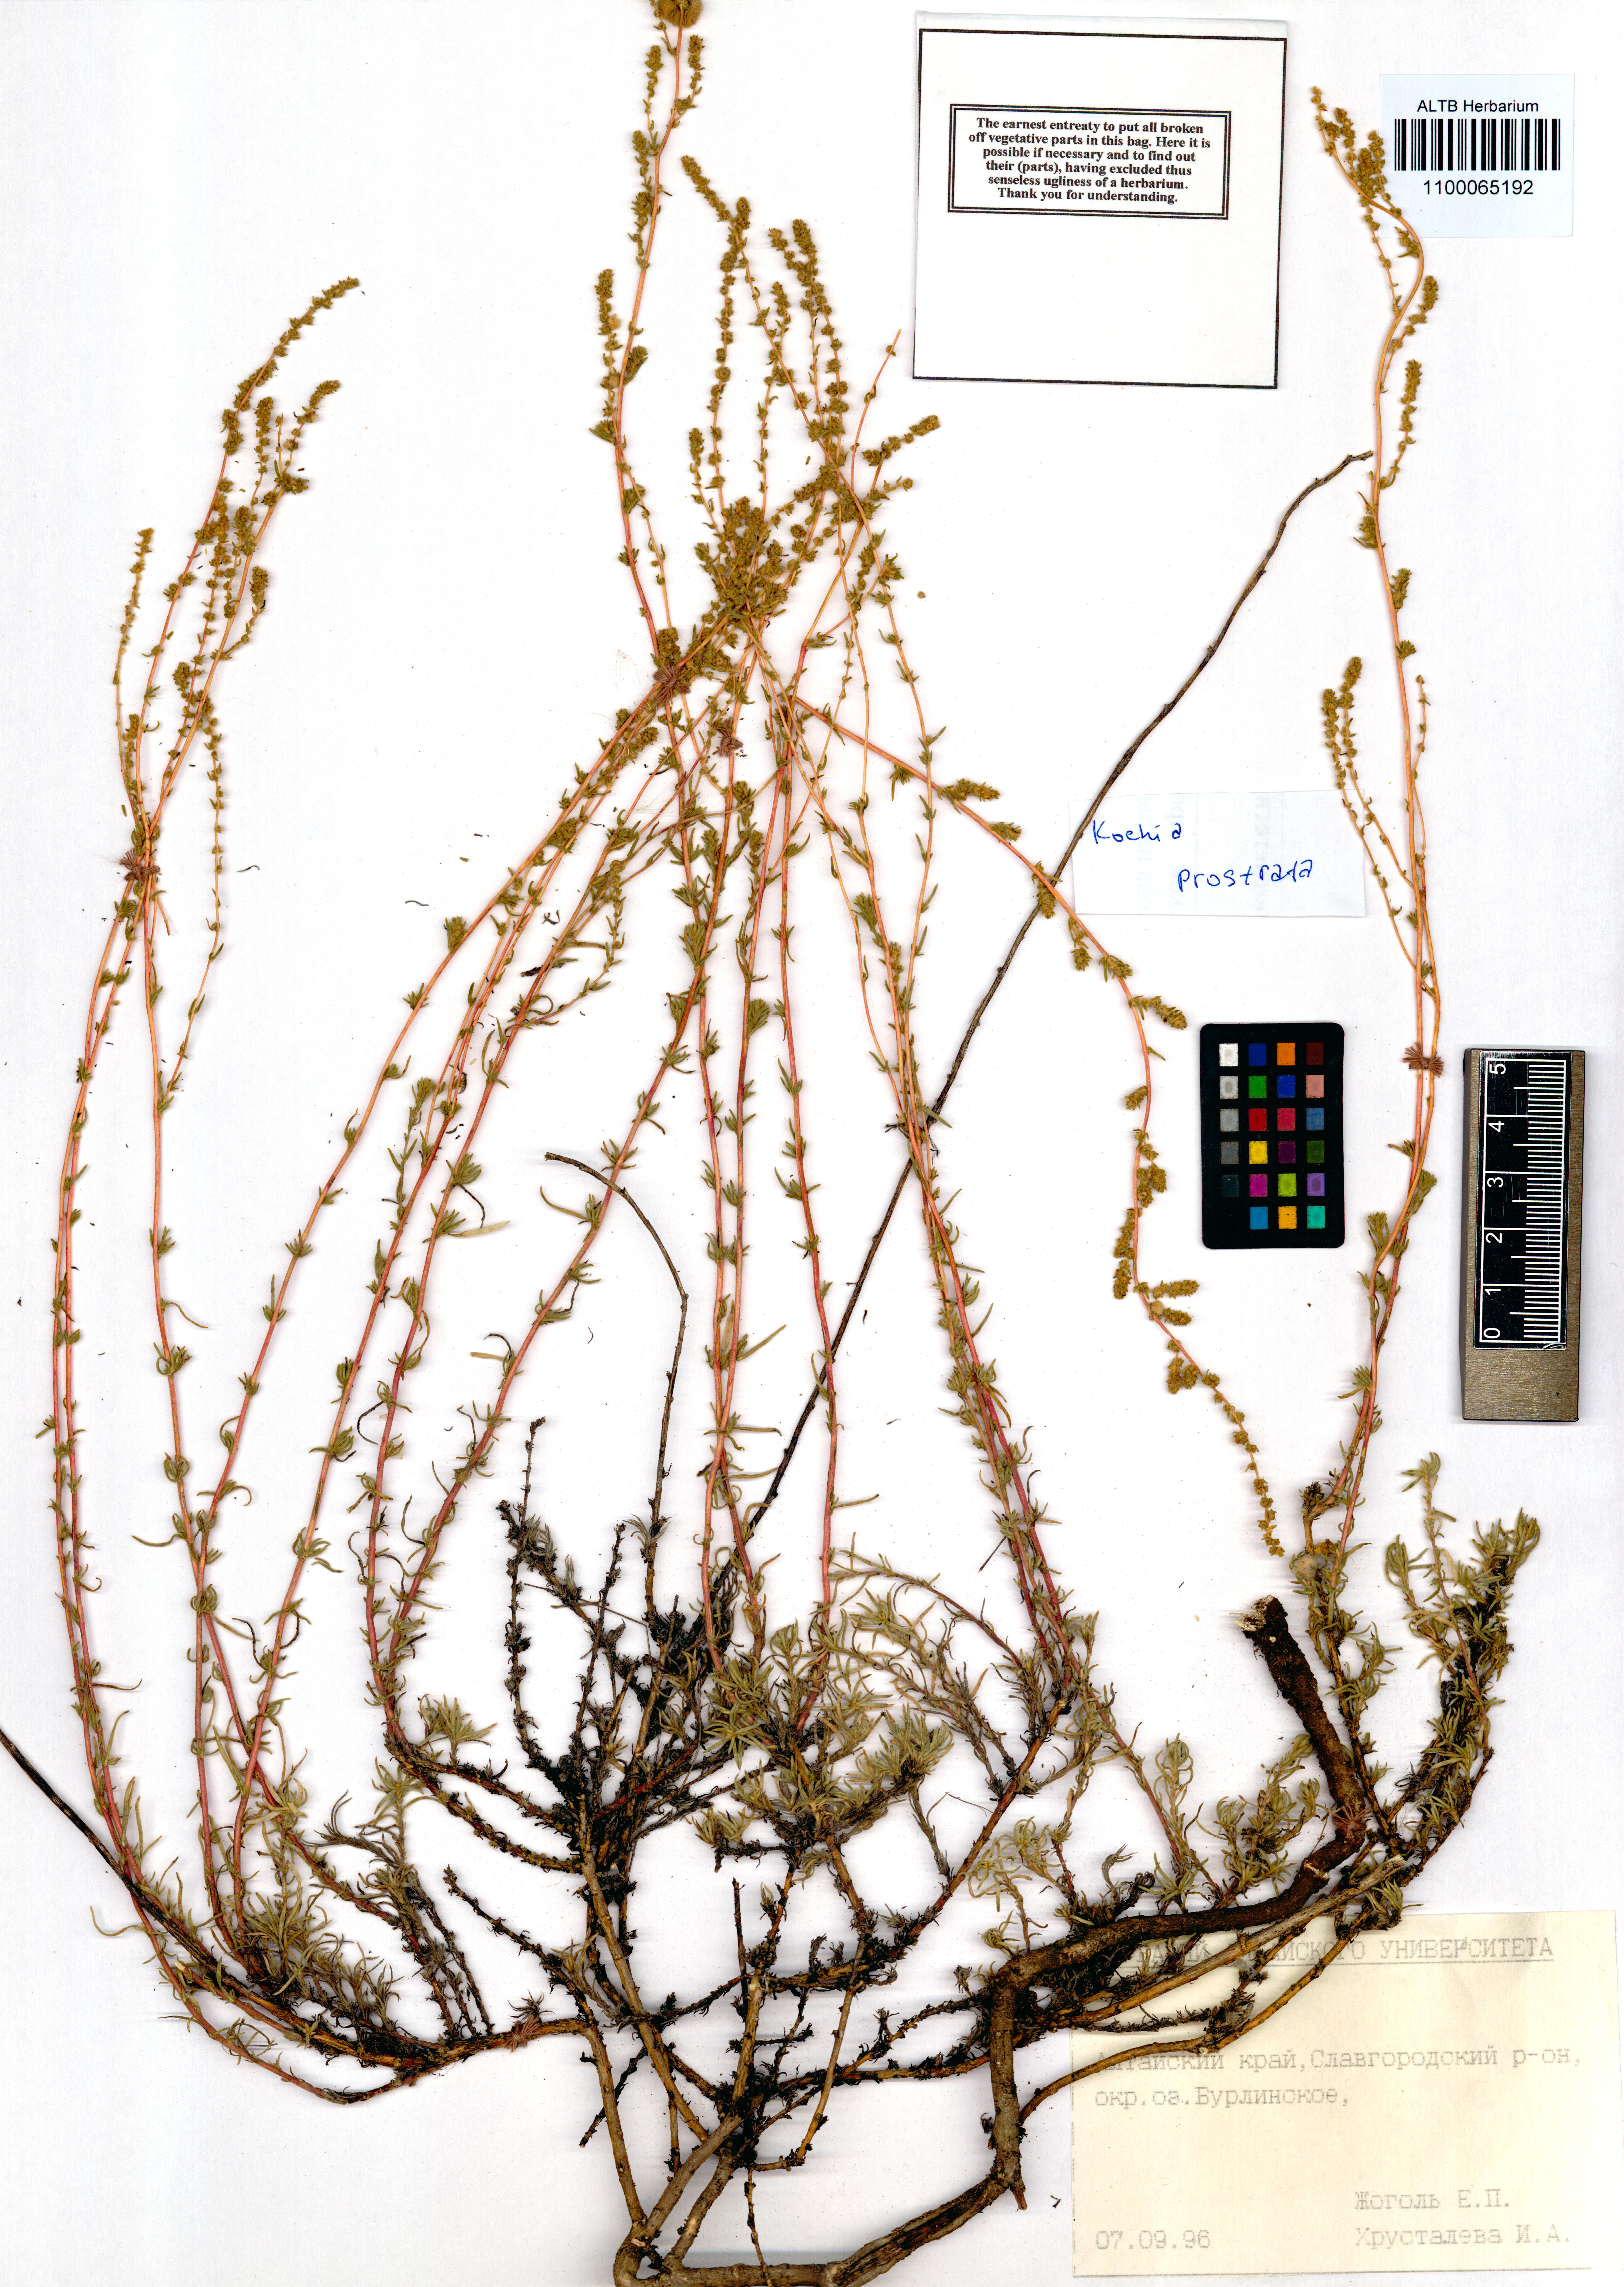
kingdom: Plantae
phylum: Tracheophyta
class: Magnoliopsida
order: Caryophyllales
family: Amaranthaceae
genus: Bassia
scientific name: Bassia prostrata
